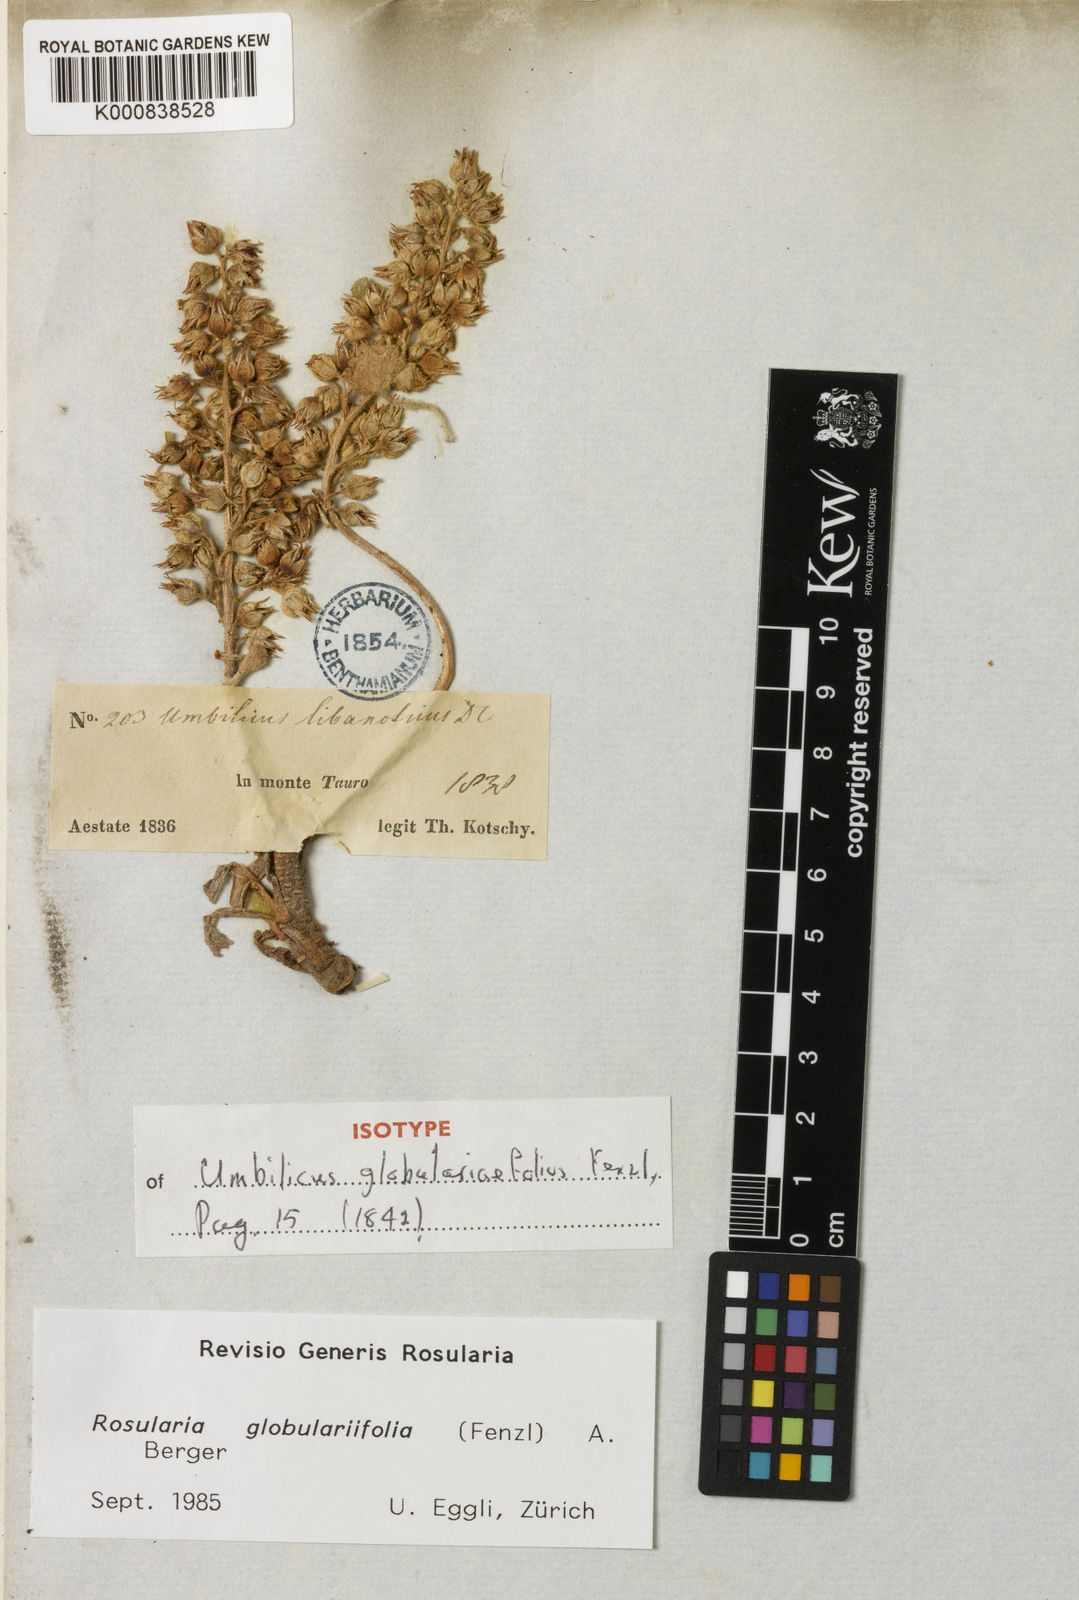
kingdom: Plantae
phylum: Tracheophyta
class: Magnoliopsida
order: Saxifragales
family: Crassulaceae
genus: Rosularia
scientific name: Rosularia
